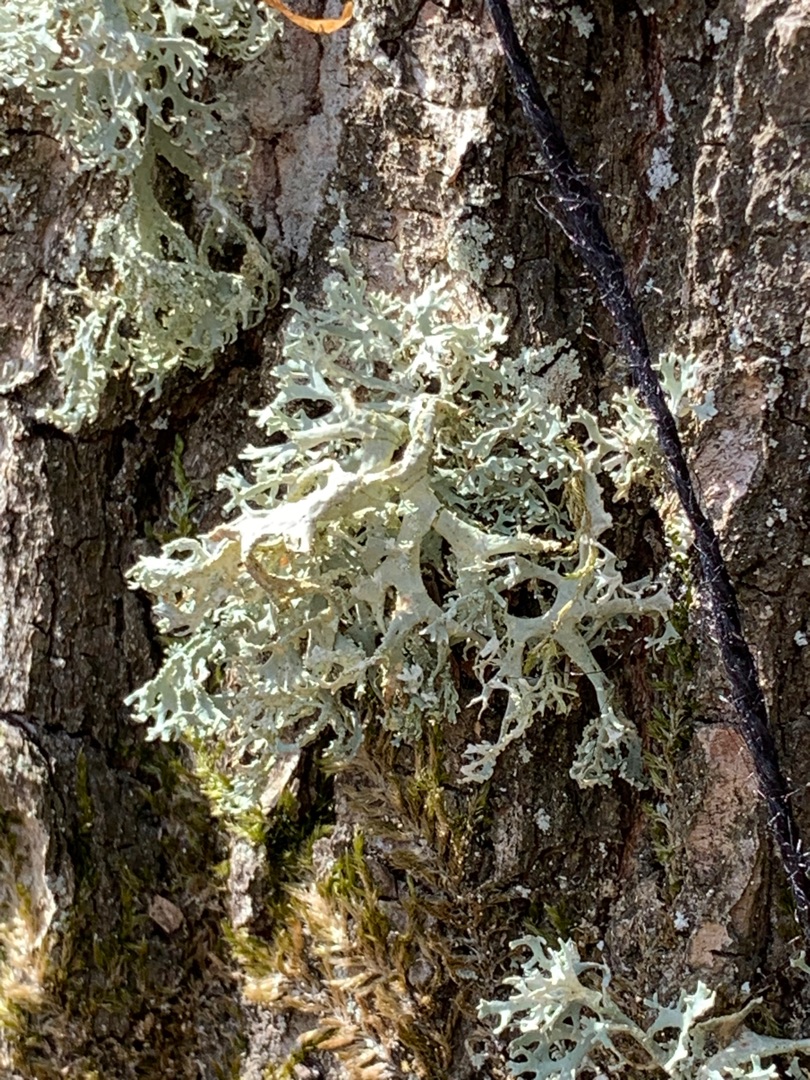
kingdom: Fungi
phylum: Ascomycota
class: Lecanoromycetes
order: Lecanorales
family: Parmeliaceae
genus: Evernia
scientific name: Evernia prunastri
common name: Almindelig slåenlav
